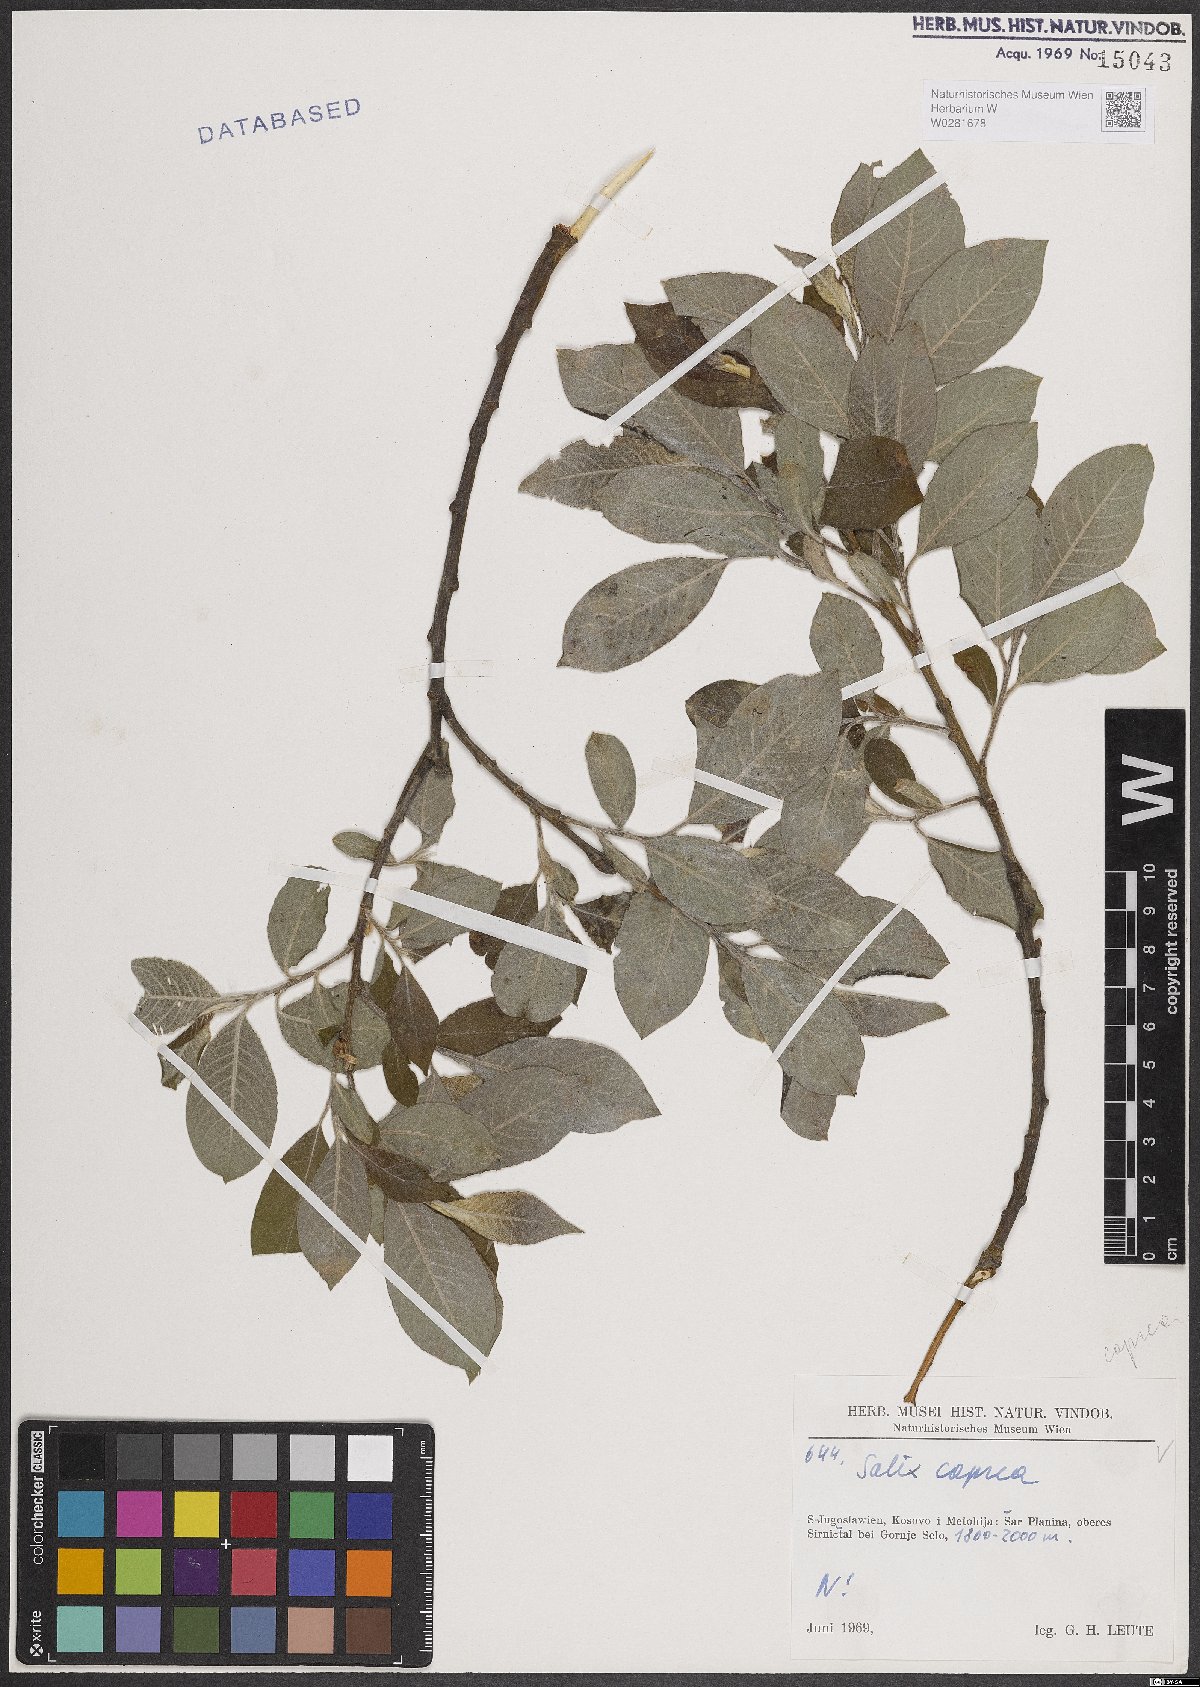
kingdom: Plantae
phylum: Tracheophyta
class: Magnoliopsida
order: Malpighiales
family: Salicaceae
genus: Salix
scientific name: Salix caprea
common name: Goat willow
